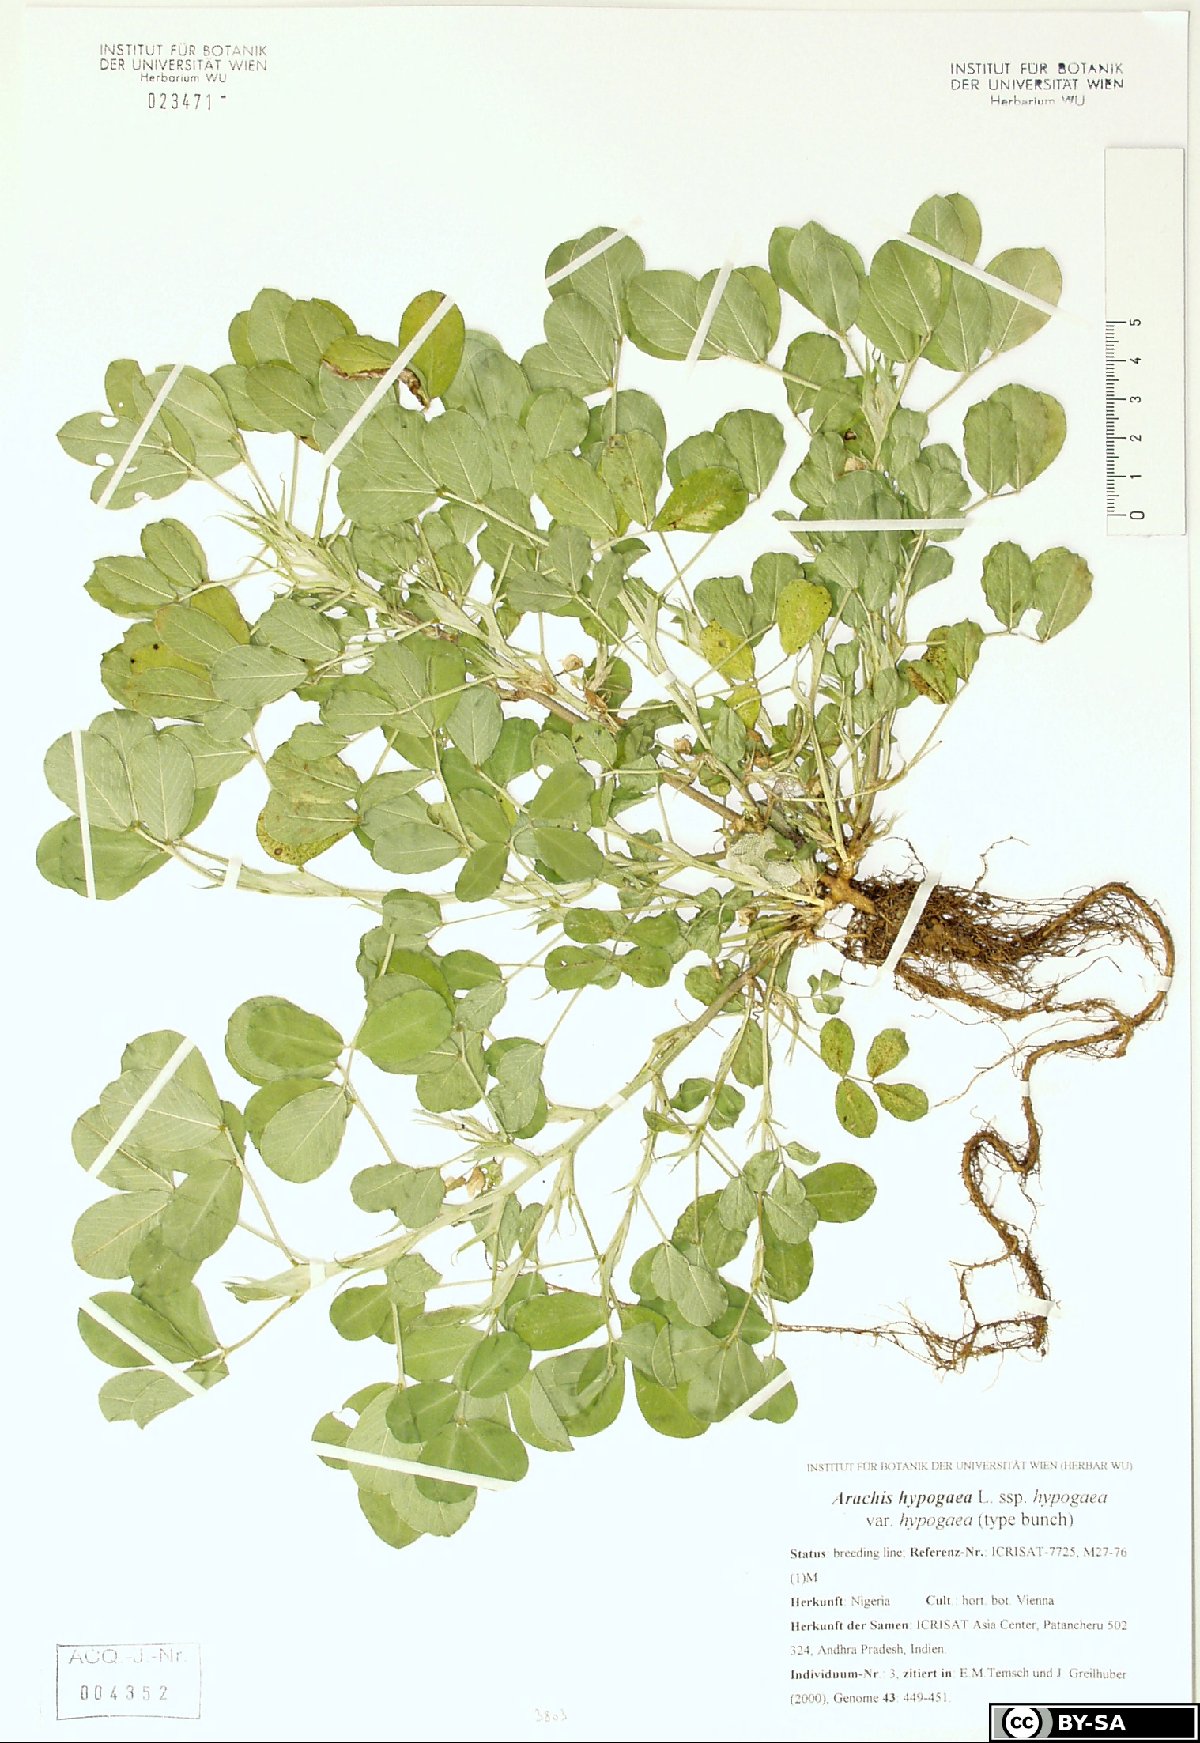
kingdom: Plantae
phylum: Tracheophyta
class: Magnoliopsida
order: Fabales
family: Fabaceae
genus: Arachis
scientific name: Arachis hypogaea
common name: Peanut
